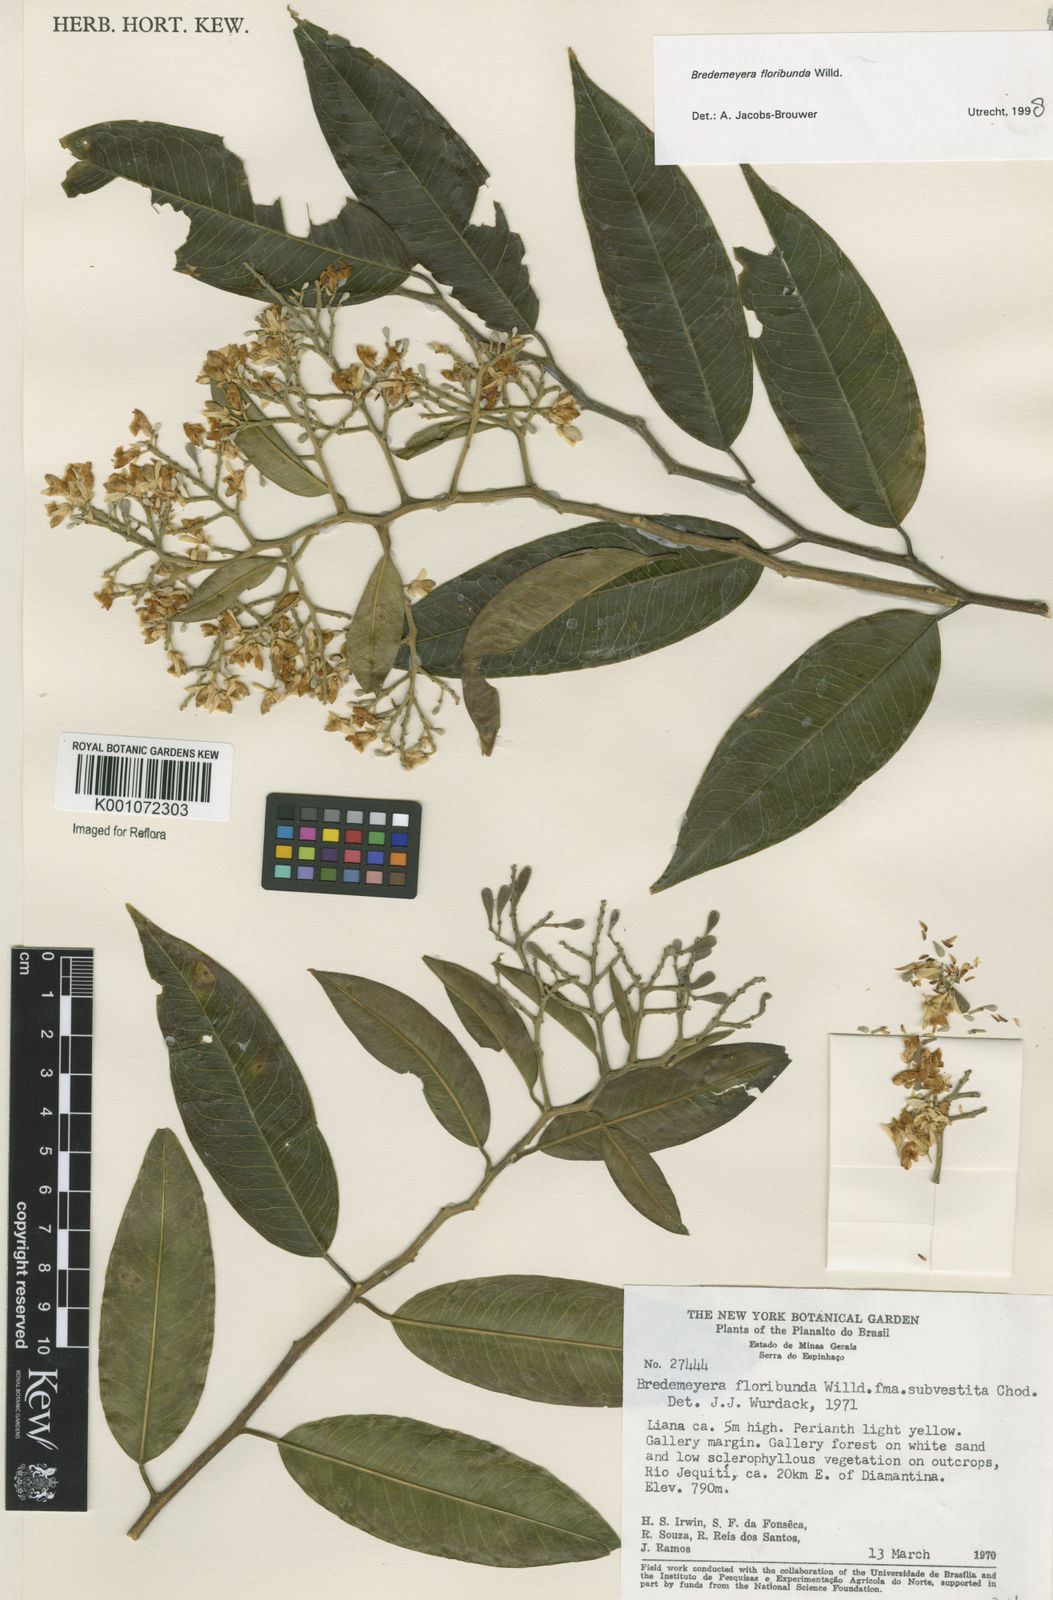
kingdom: Plantae
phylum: Tracheophyta
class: Magnoliopsida
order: Fabales
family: Polygalaceae
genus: Bredemeyera
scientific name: Bredemeyera floribunda
